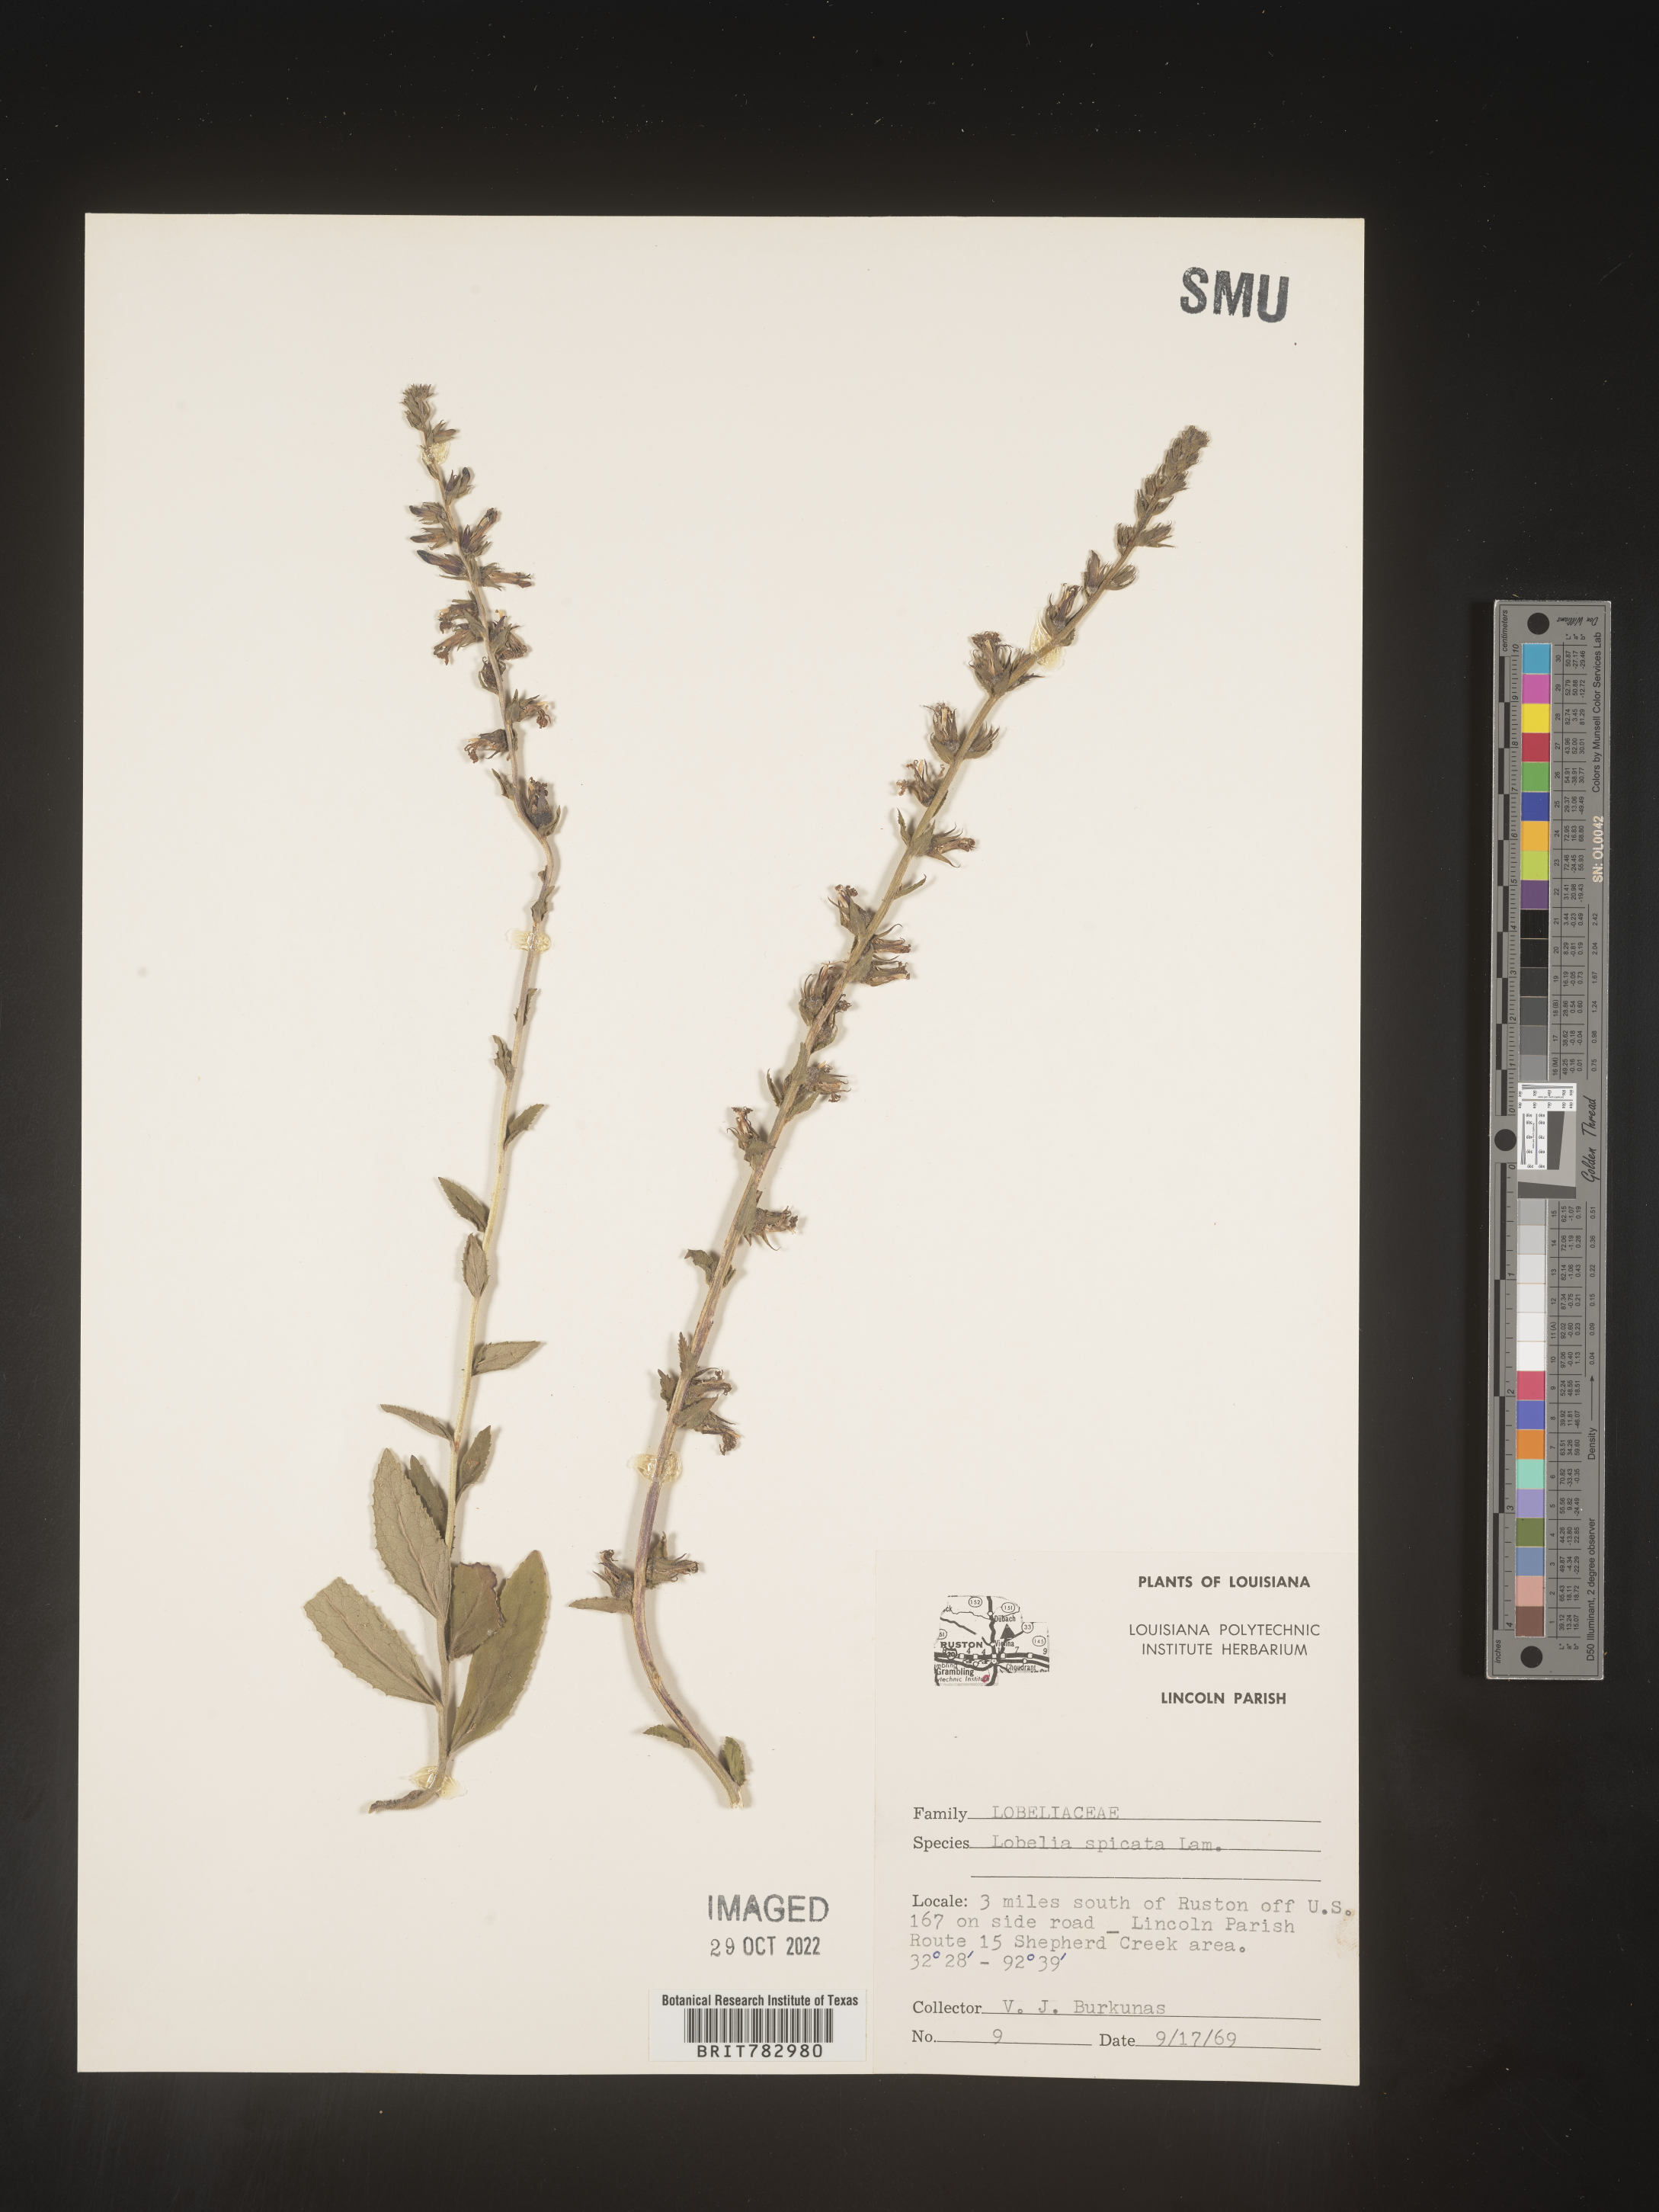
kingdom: Plantae
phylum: Tracheophyta
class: Magnoliopsida
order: Asterales
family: Campanulaceae
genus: Lobelia
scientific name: Lobelia spicata
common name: Pale-spike lobelia
